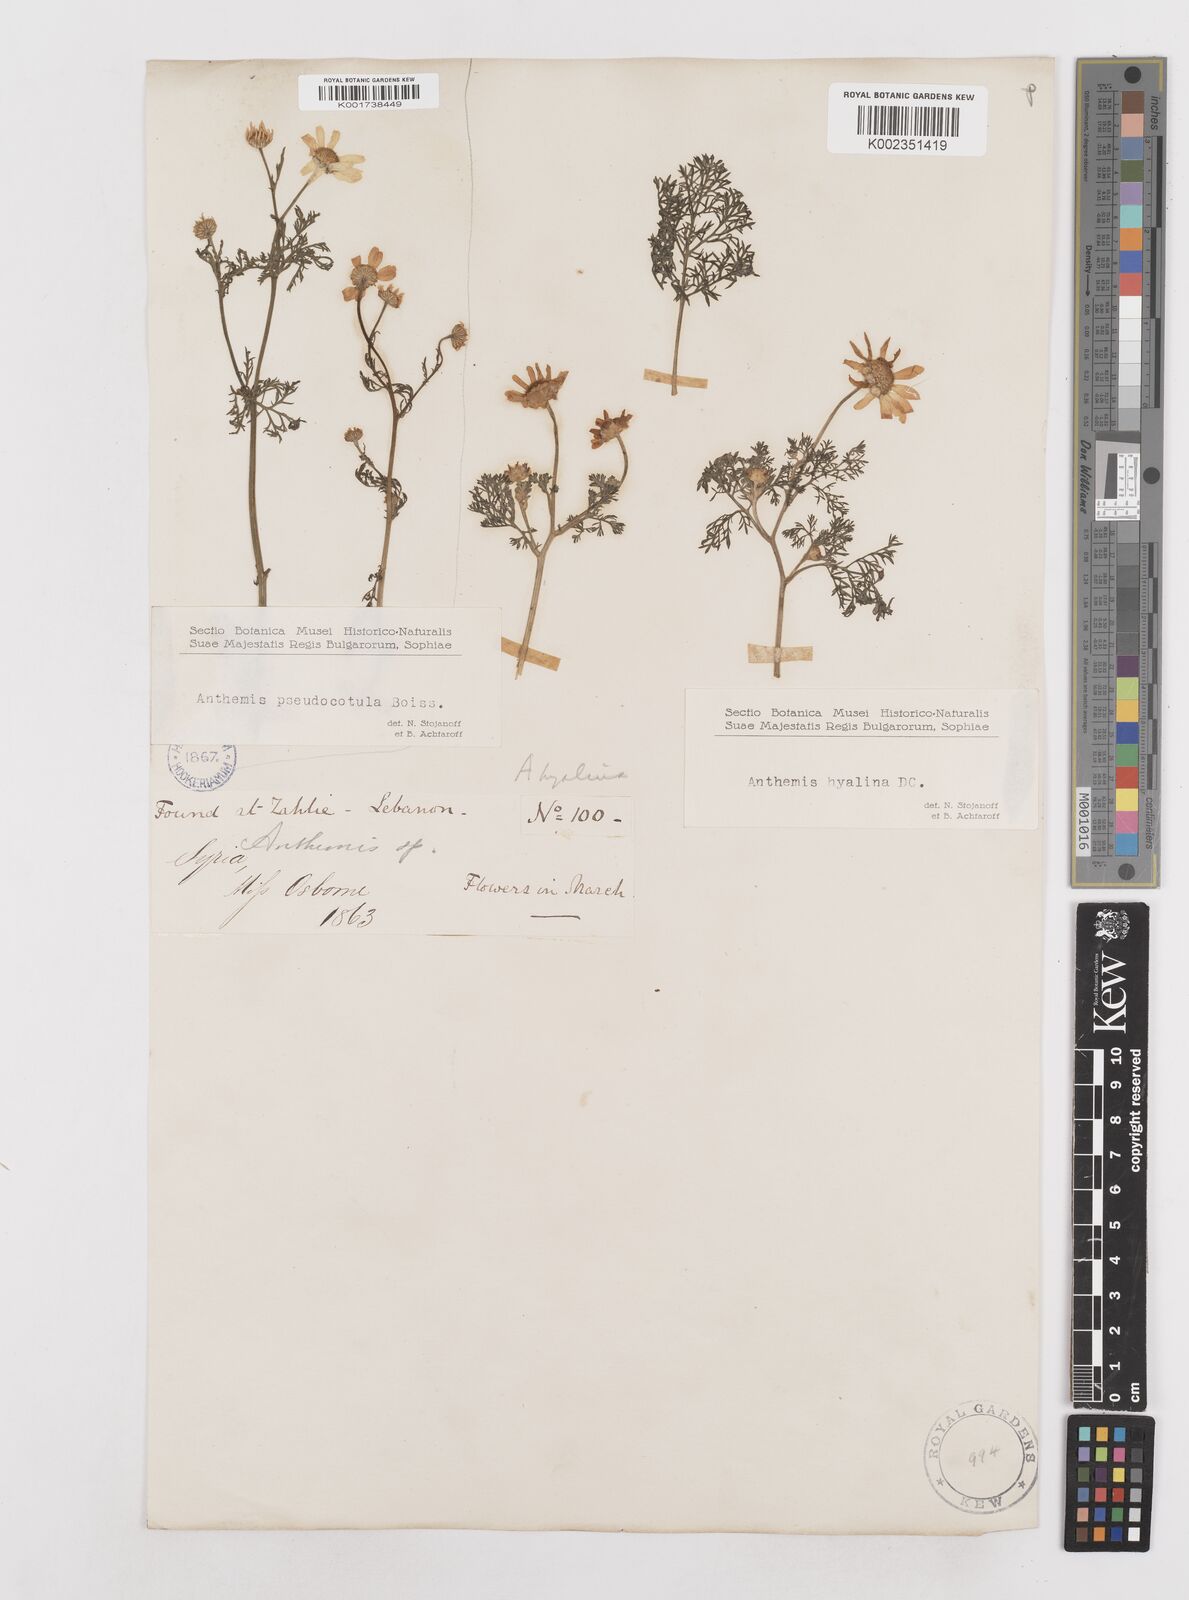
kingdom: Plantae
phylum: Tracheophyta
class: Magnoliopsida
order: Asterales
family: Asteraceae
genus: Anthemis
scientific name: Anthemis hyalina
